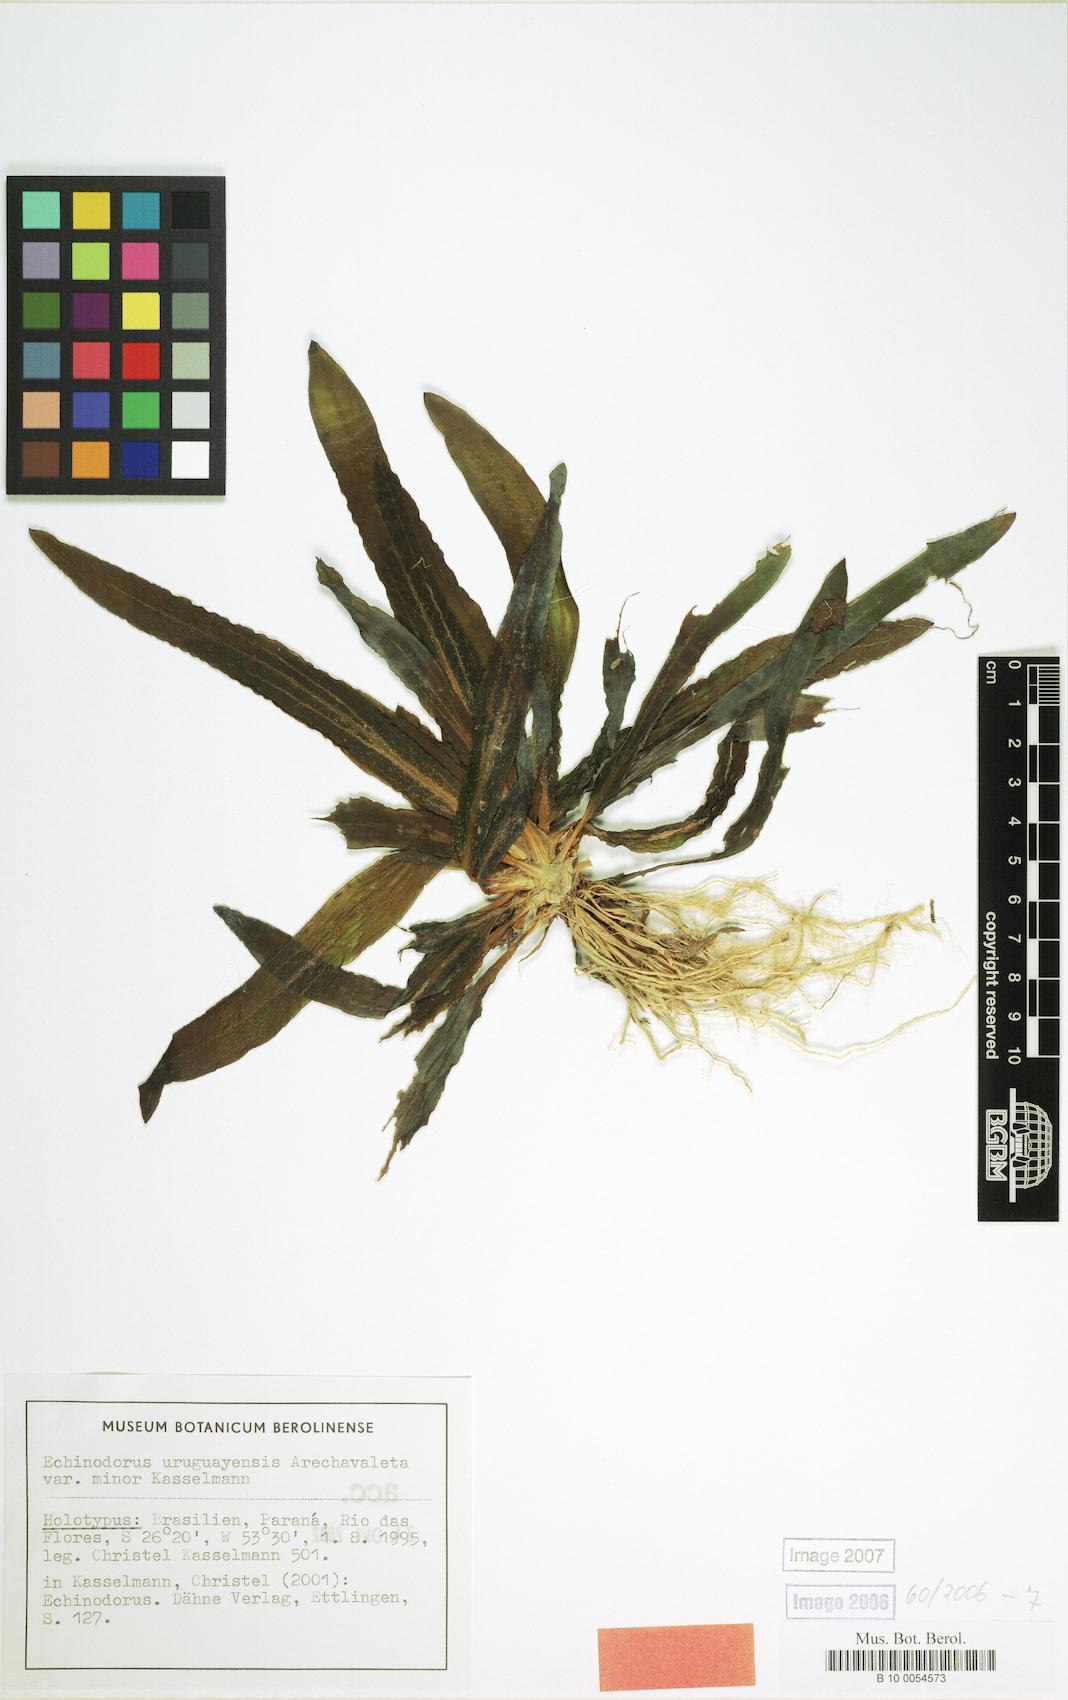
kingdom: Plantae
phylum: Tracheophyta
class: Liliopsida
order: Alismatales
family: Alismataceae
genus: Aquarius
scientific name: Aquarius uruguayensis
